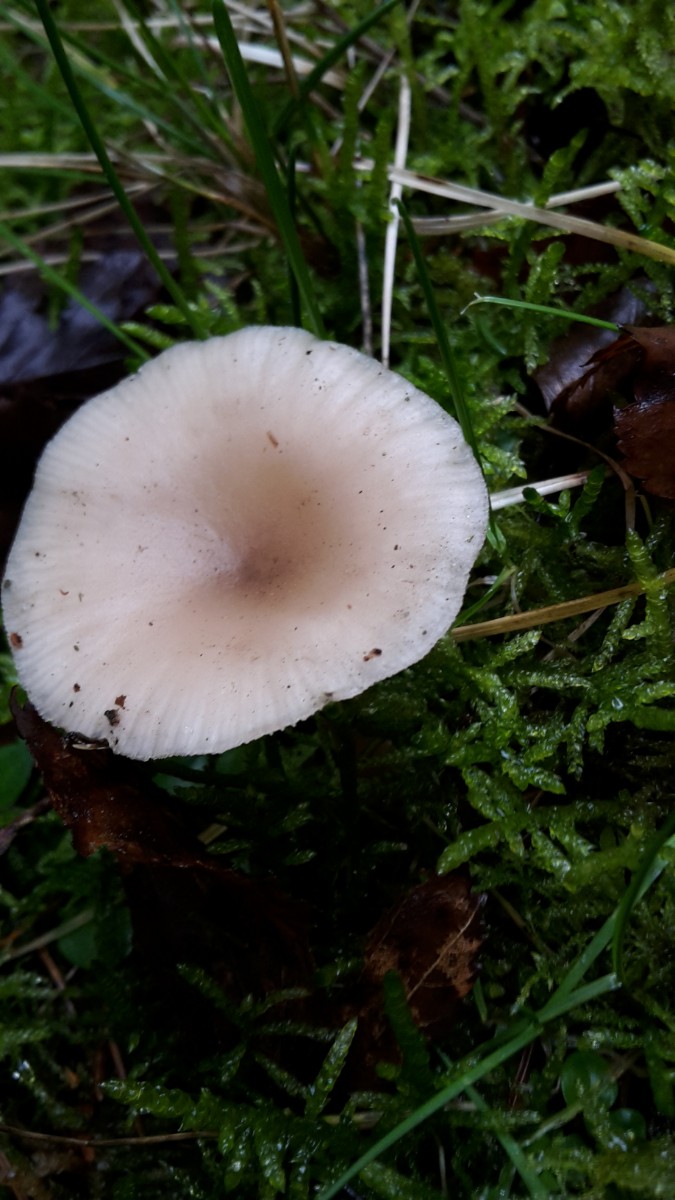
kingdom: Fungi
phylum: Basidiomycota
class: Agaricomycetes
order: Agaricales
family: Tricholomataceae
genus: Clitocybe
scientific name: Clitocybe fragrans
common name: vellugtende tragthat
